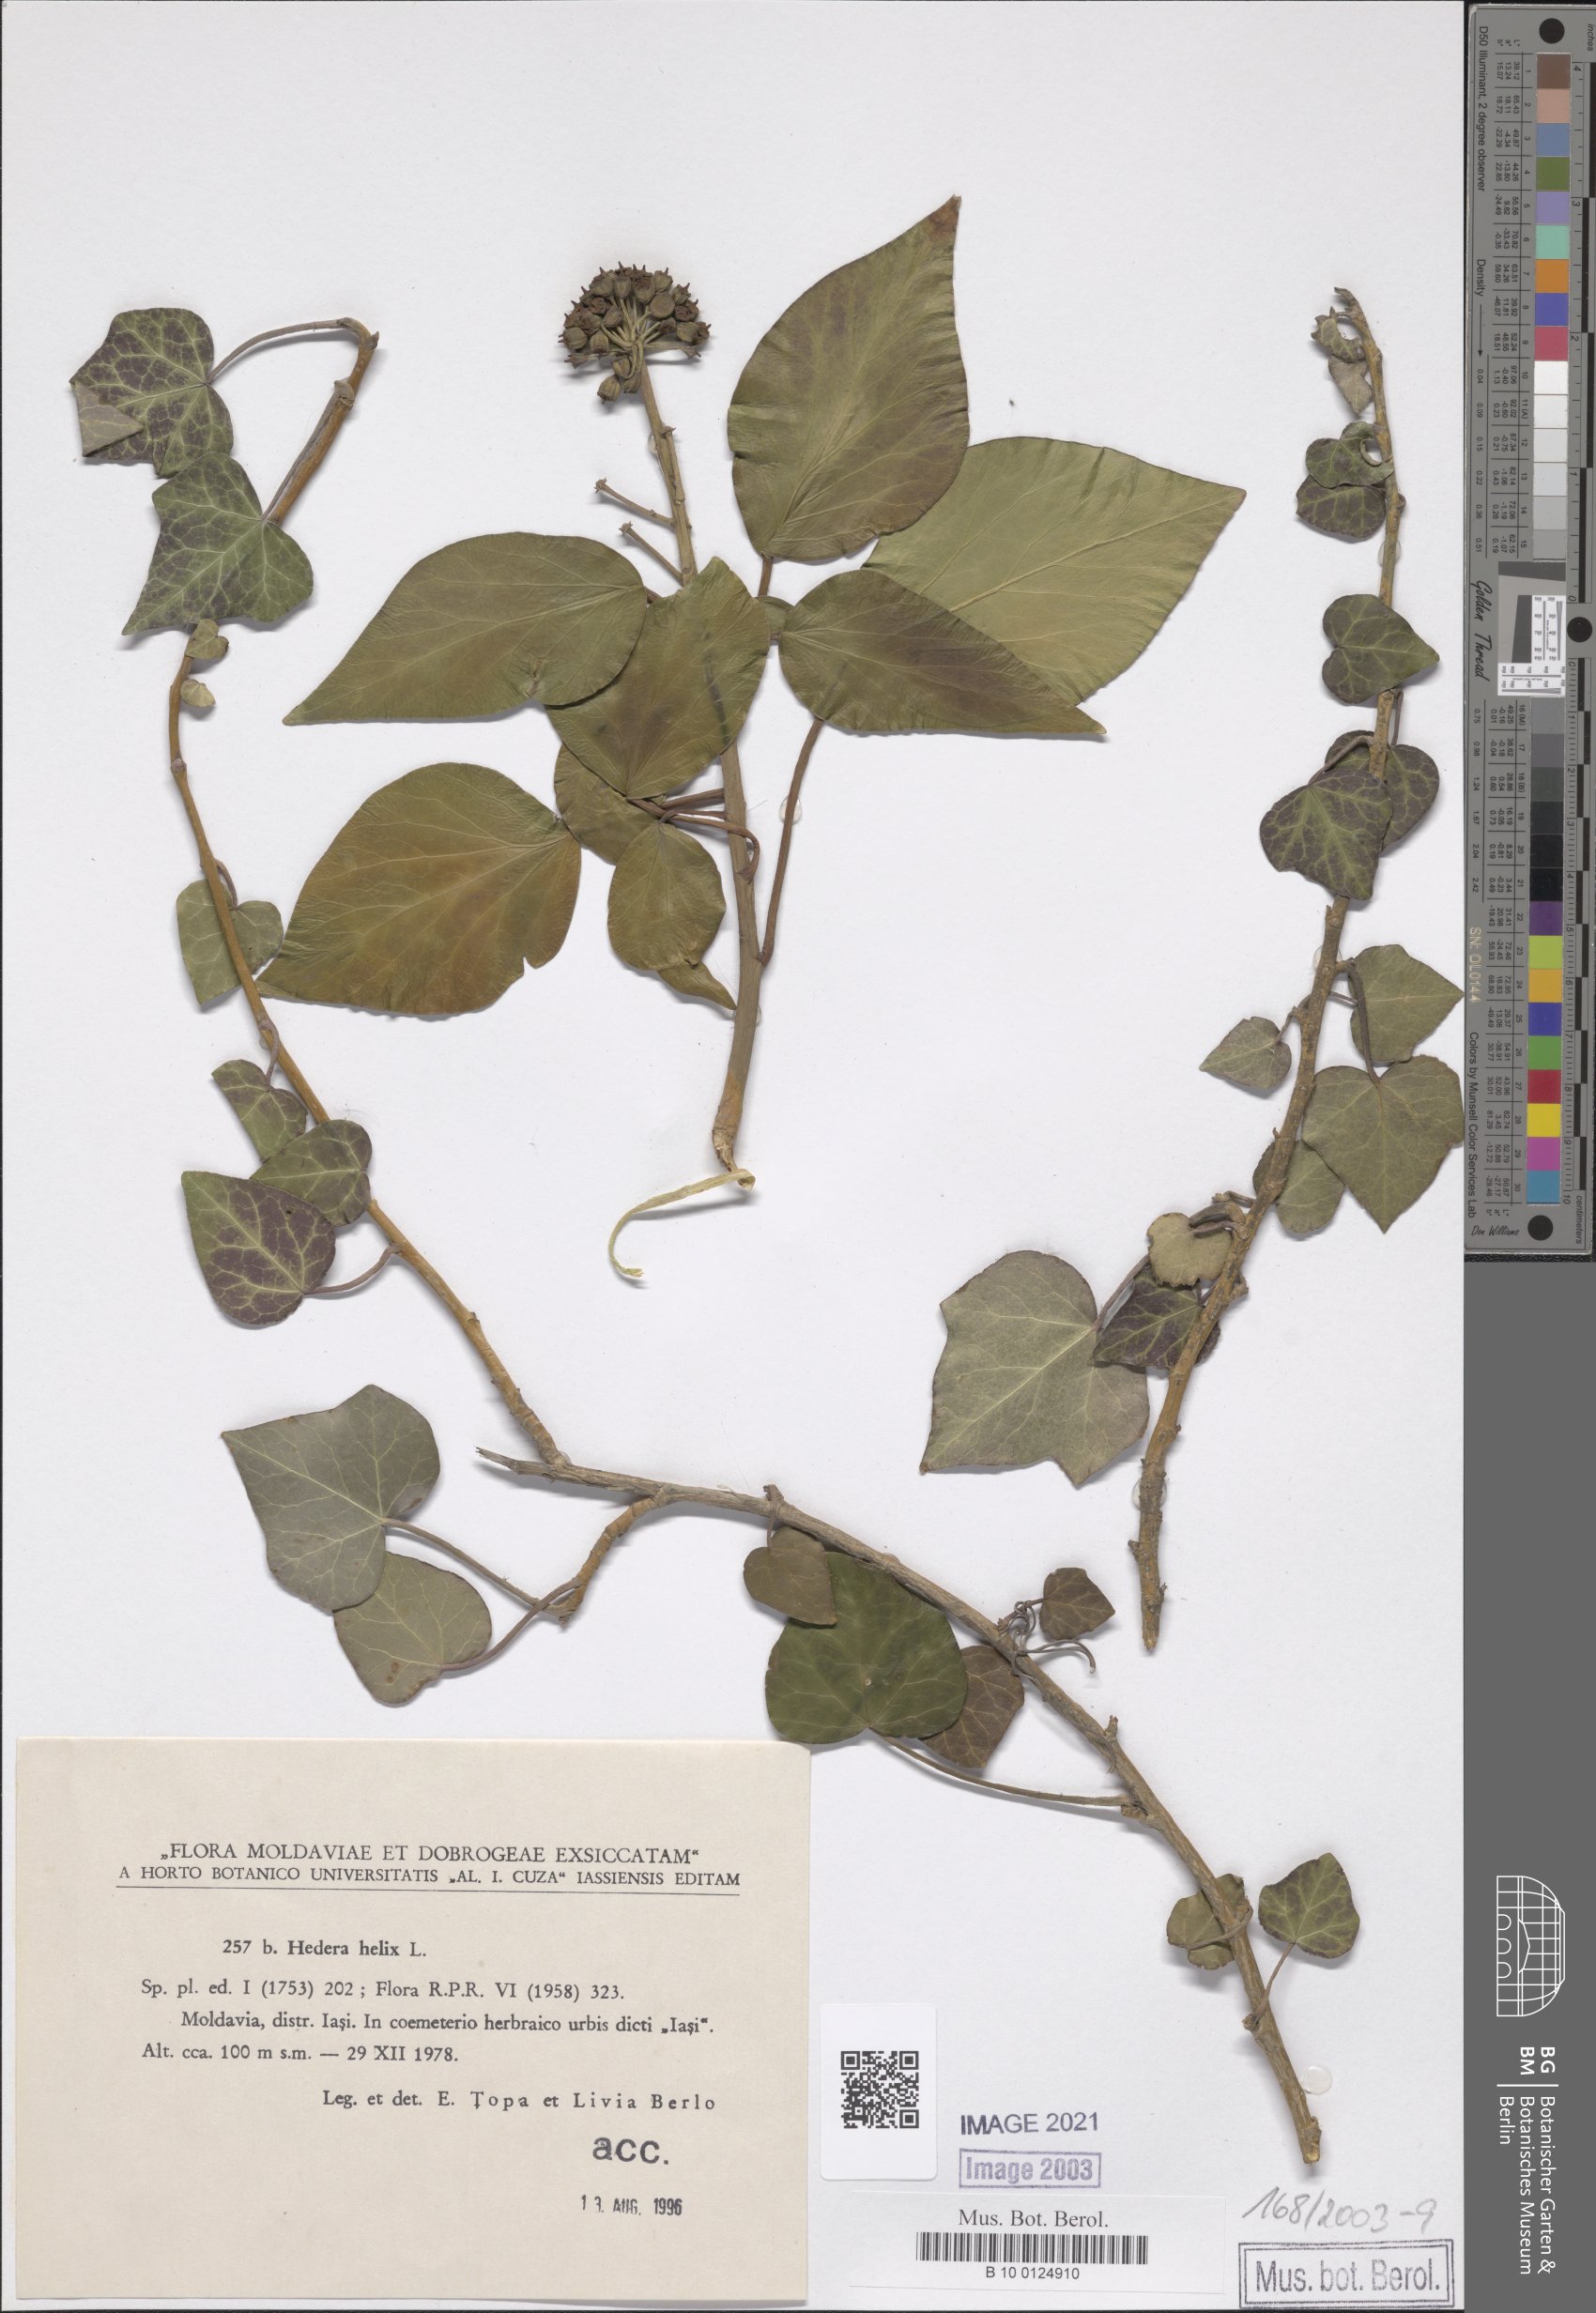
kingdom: Plantae
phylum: Tracheophyta
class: Magnoliopsida
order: Apiales
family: Araliaceae
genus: Hedera
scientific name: Hedera helix
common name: Ivy
